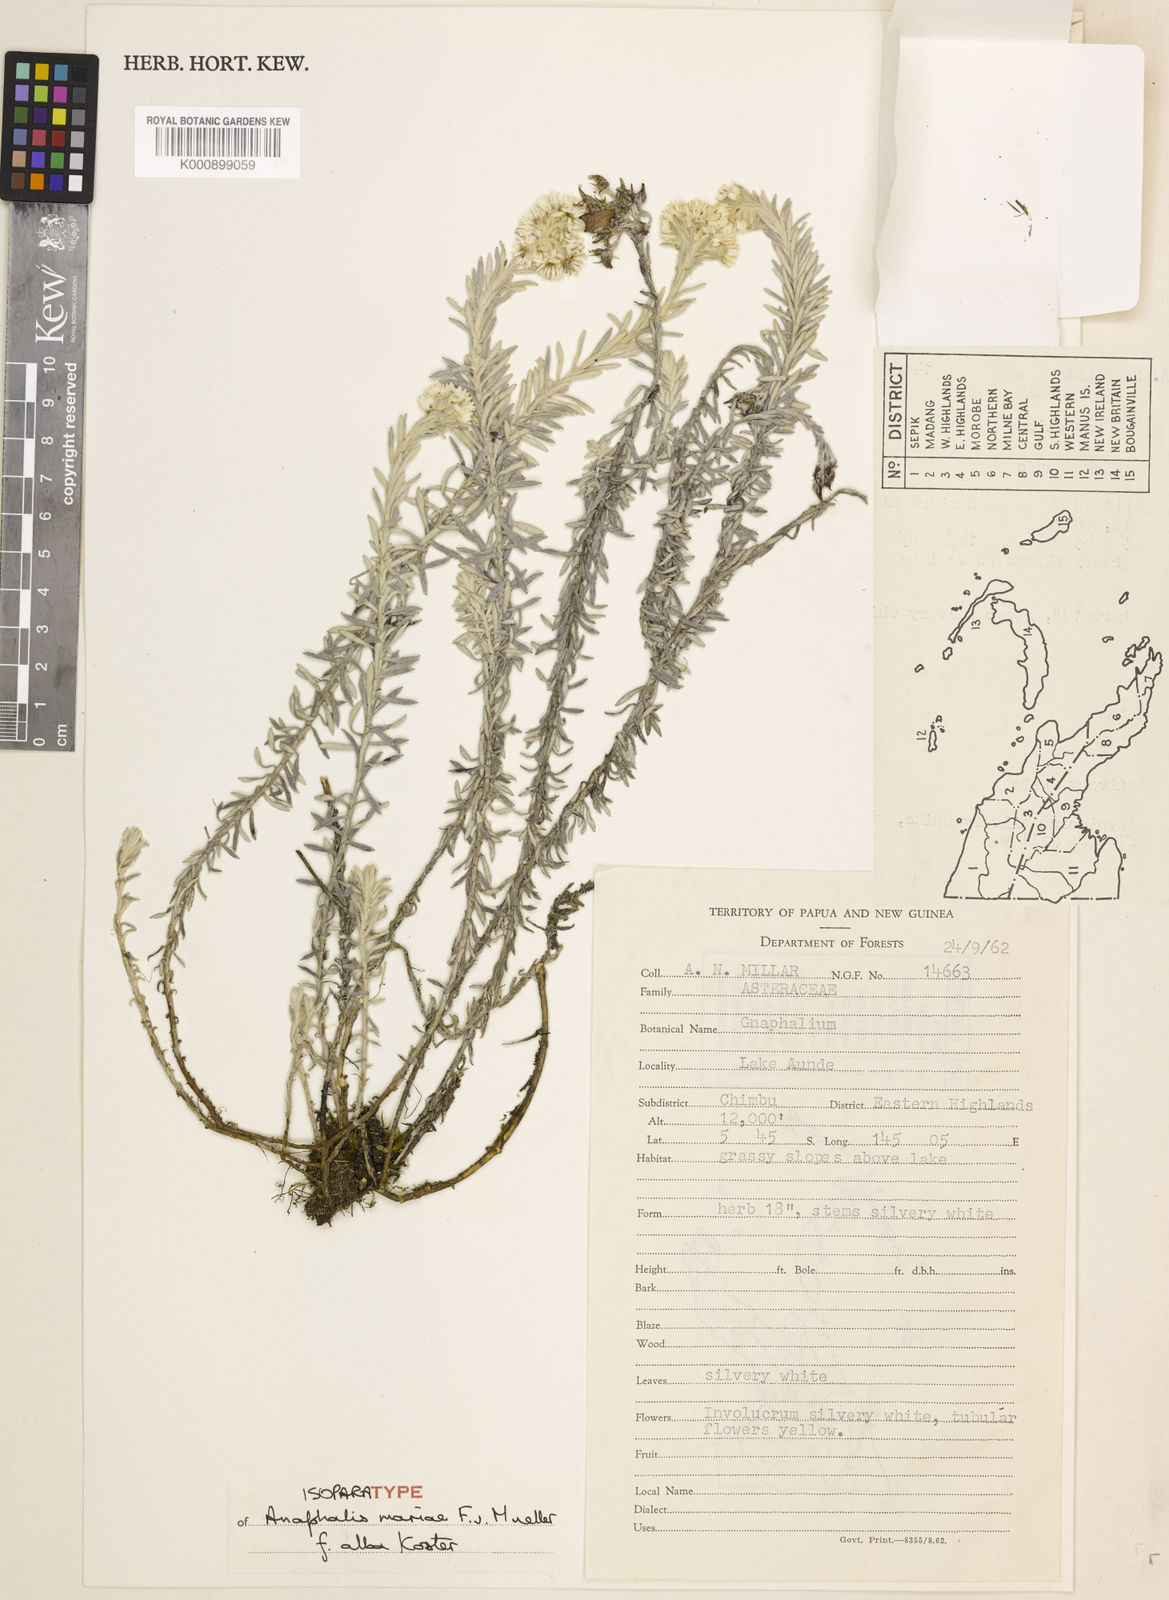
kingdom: Plantae
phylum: Tracheophyta
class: Magnoliopsida
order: Asterales
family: Asteraceae
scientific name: Asteraceae
